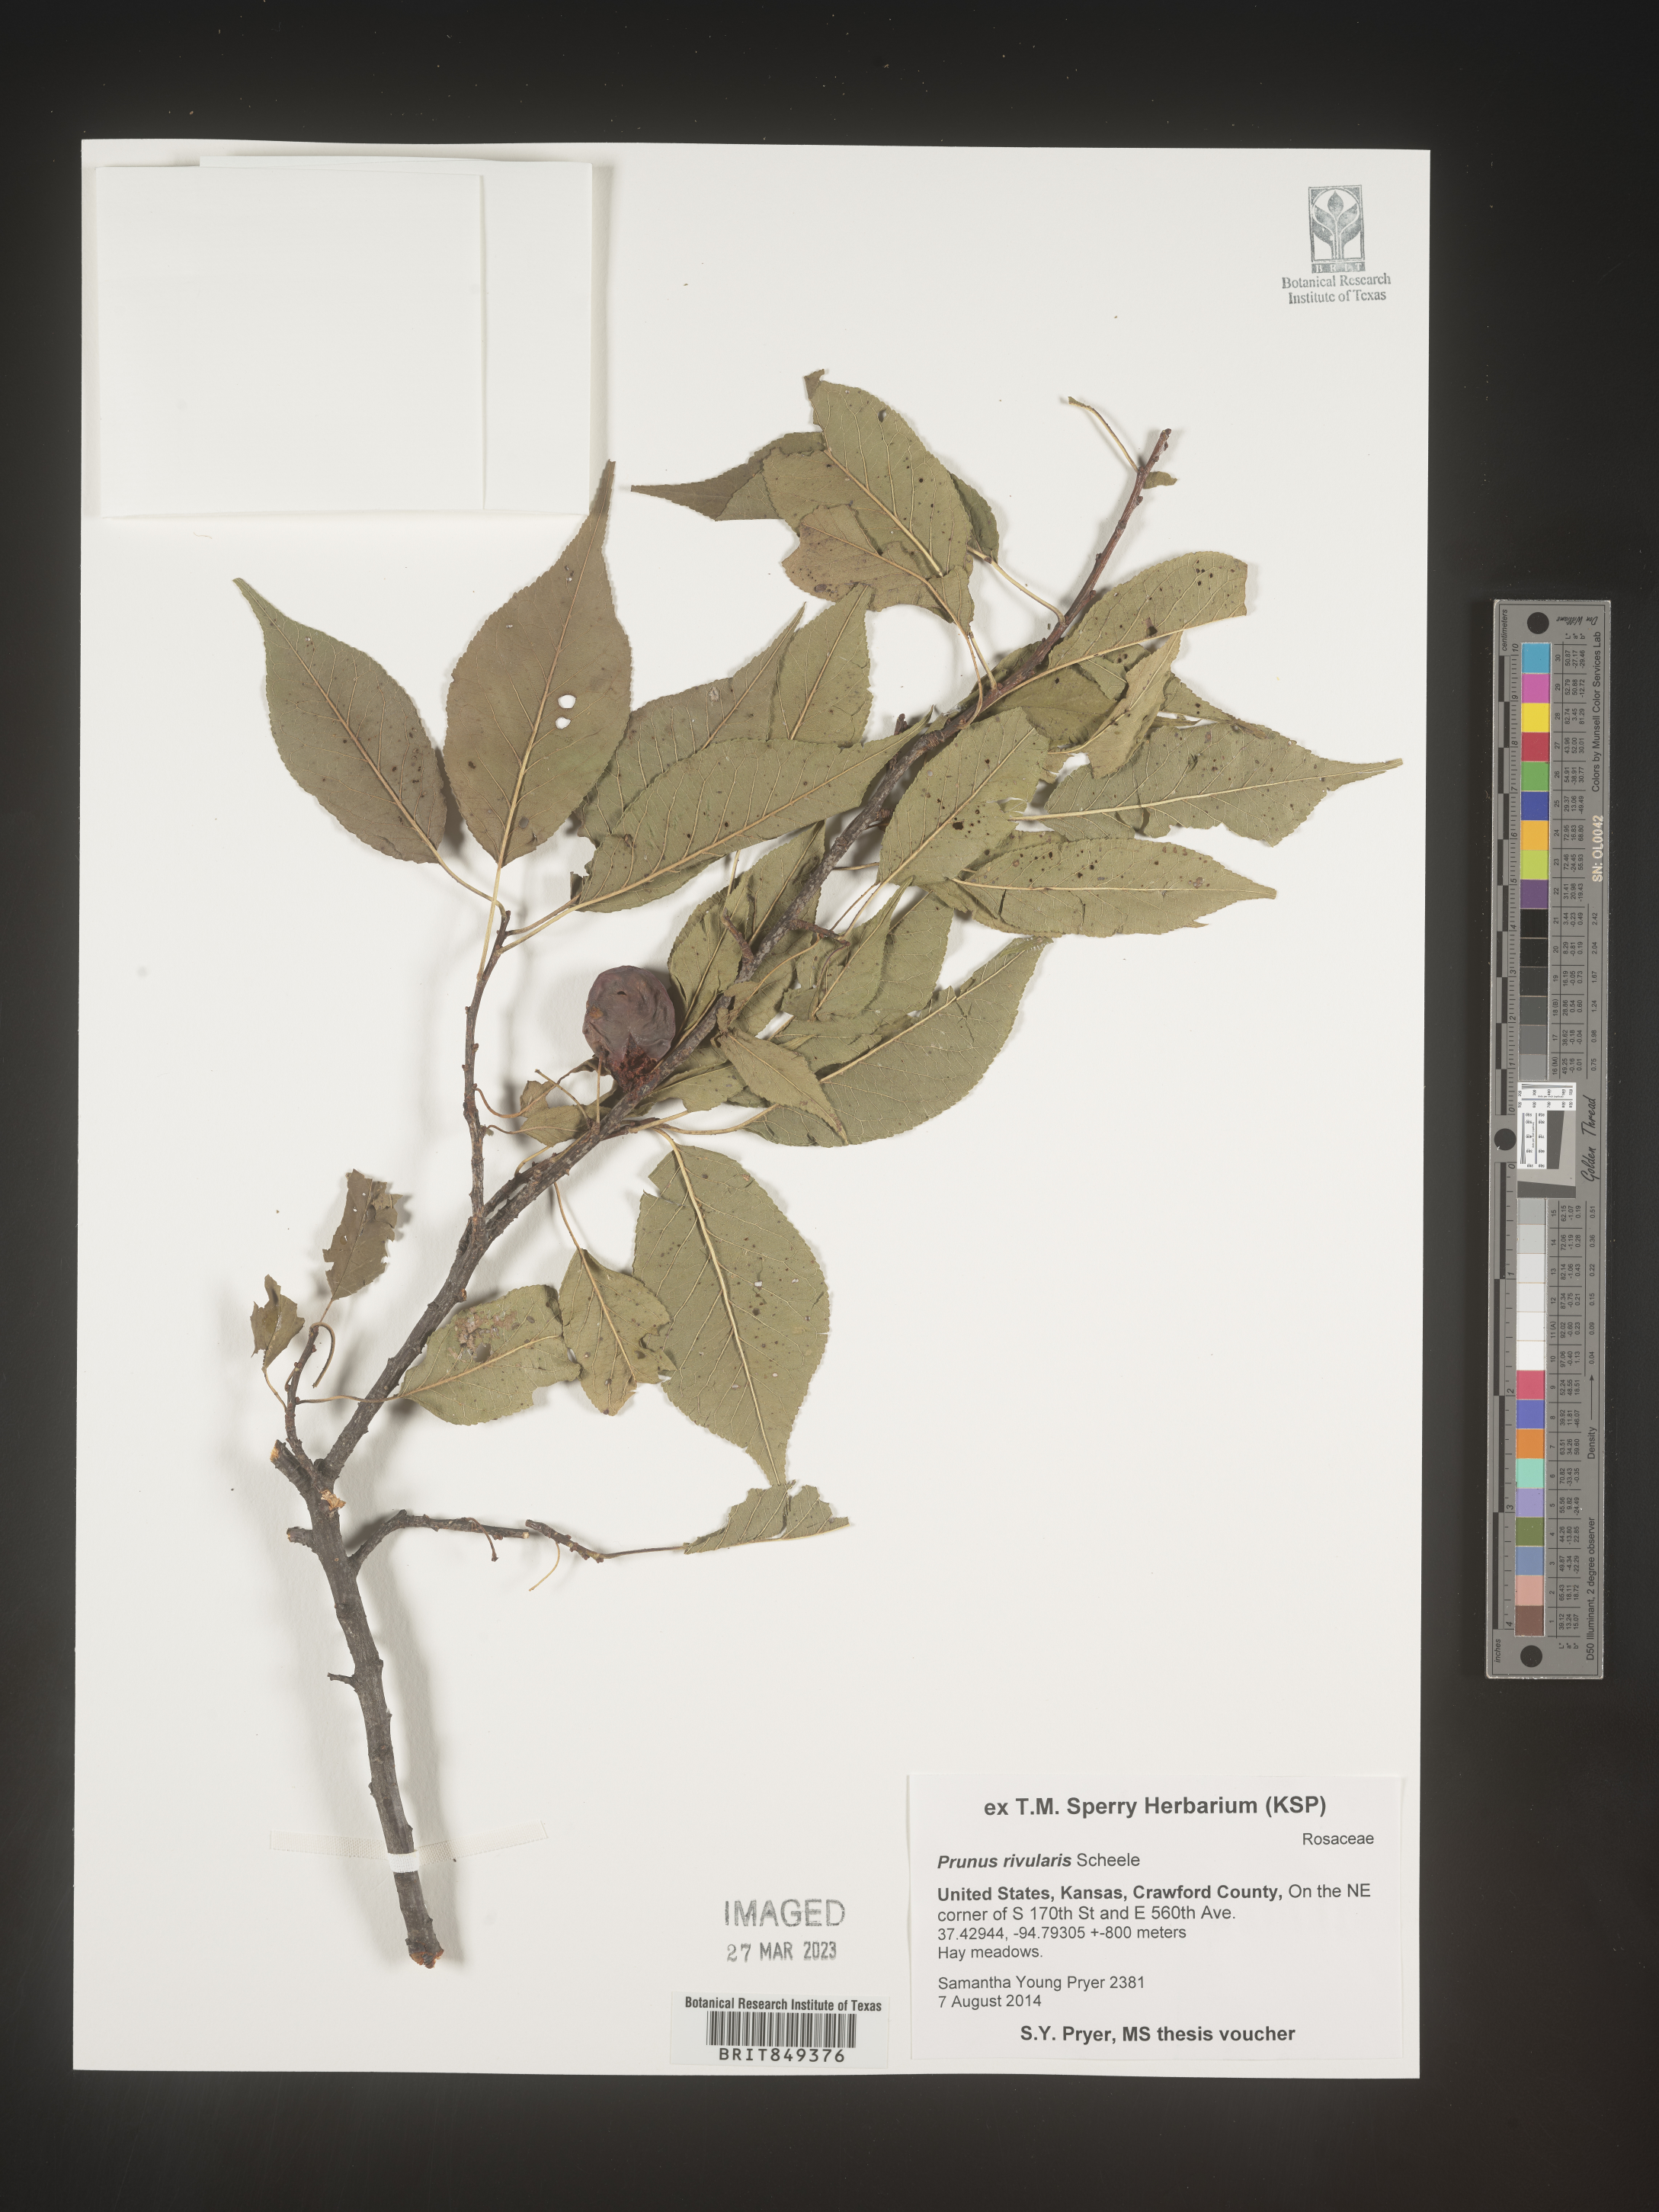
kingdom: Plantae
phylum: Tracheophyta
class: Magnoliopsida
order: Rosales
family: Rosaceae
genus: Prunus
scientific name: Prunus rivularis
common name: Creek plum
